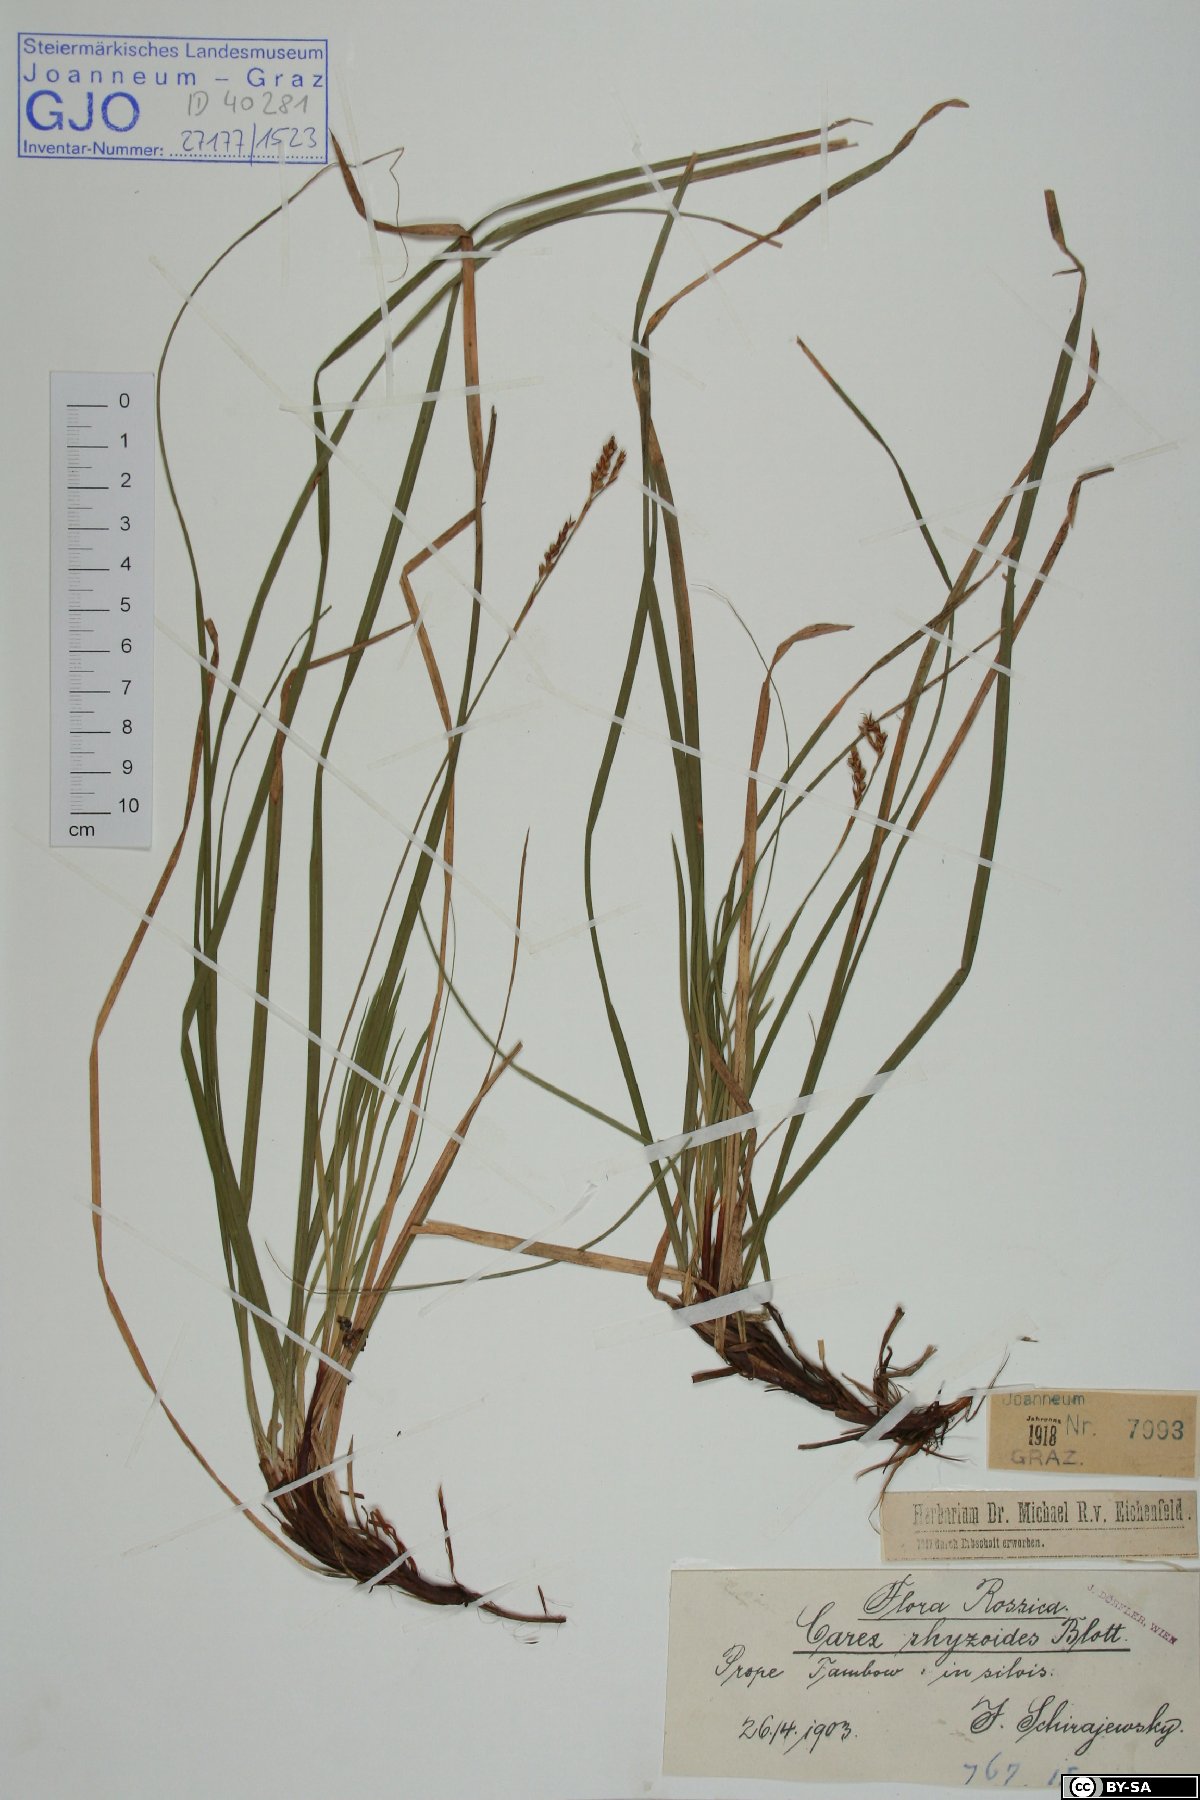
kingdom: Plantae
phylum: Tracheophyta
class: Liliopsida
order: Poales
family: Cyperaceae
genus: Carex
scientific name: Carex rhizina
